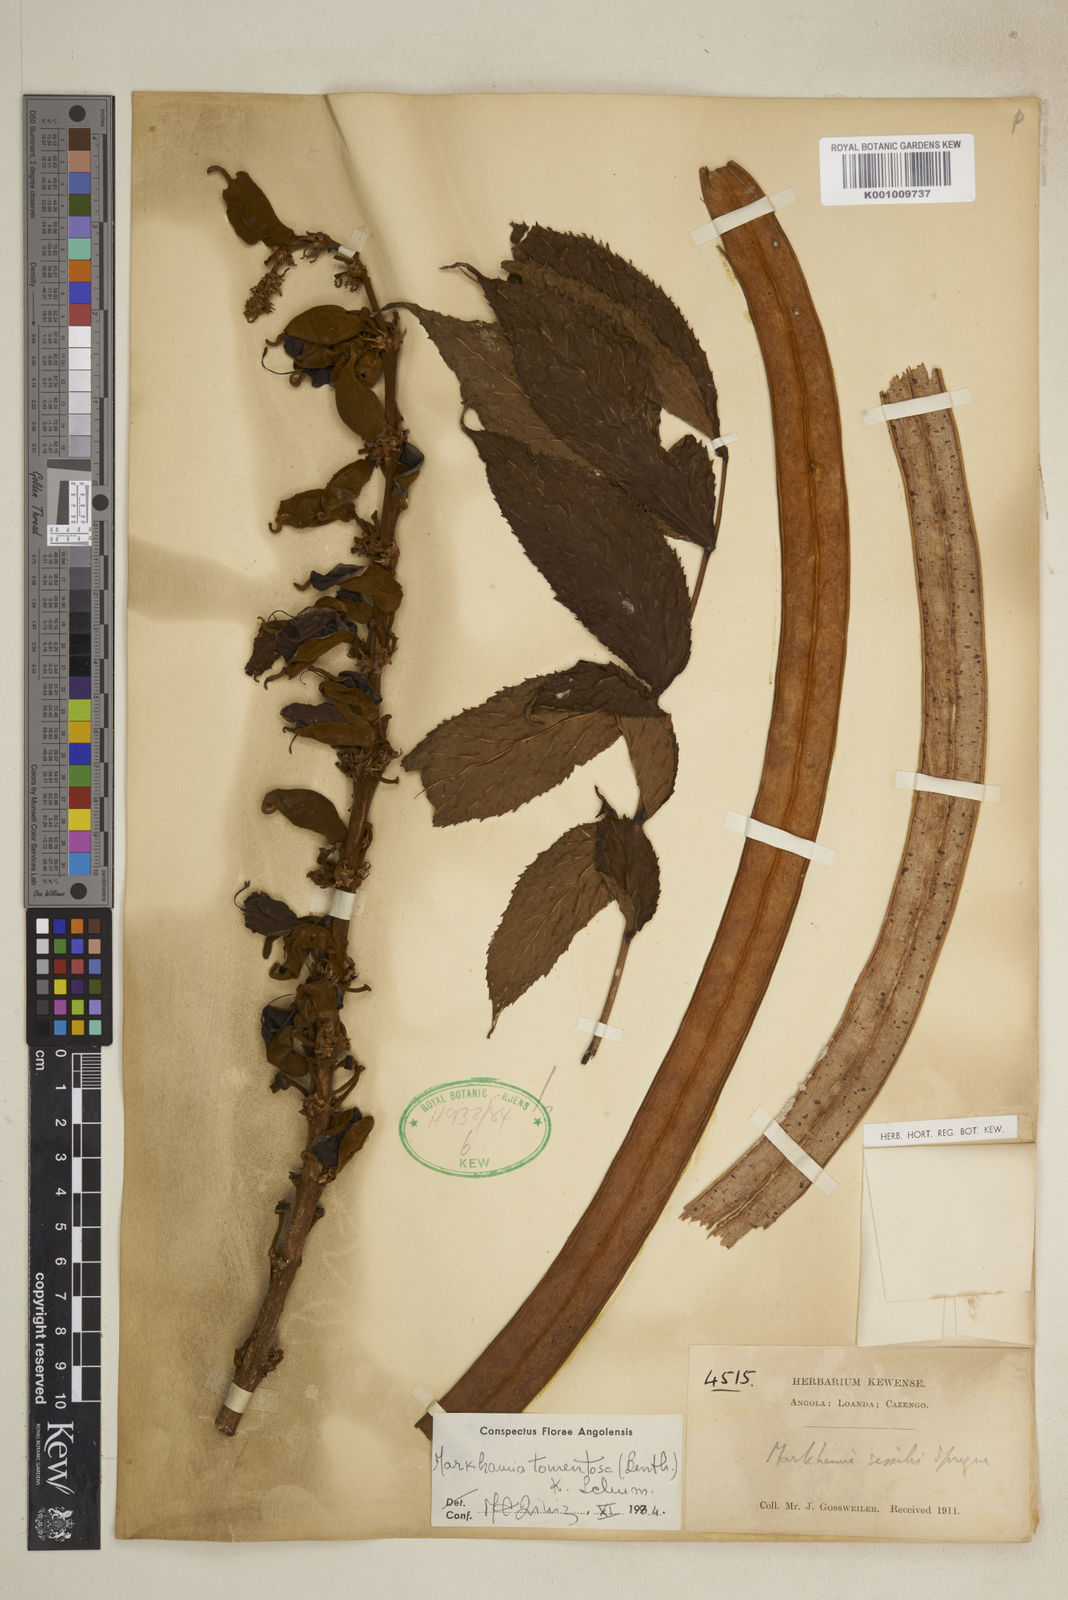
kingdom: Plantae
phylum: Tracheophyta
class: Magnoliopsida
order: Lamiales
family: Bignoniaceae
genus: Markhamia
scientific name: Markhamia tomentosa
